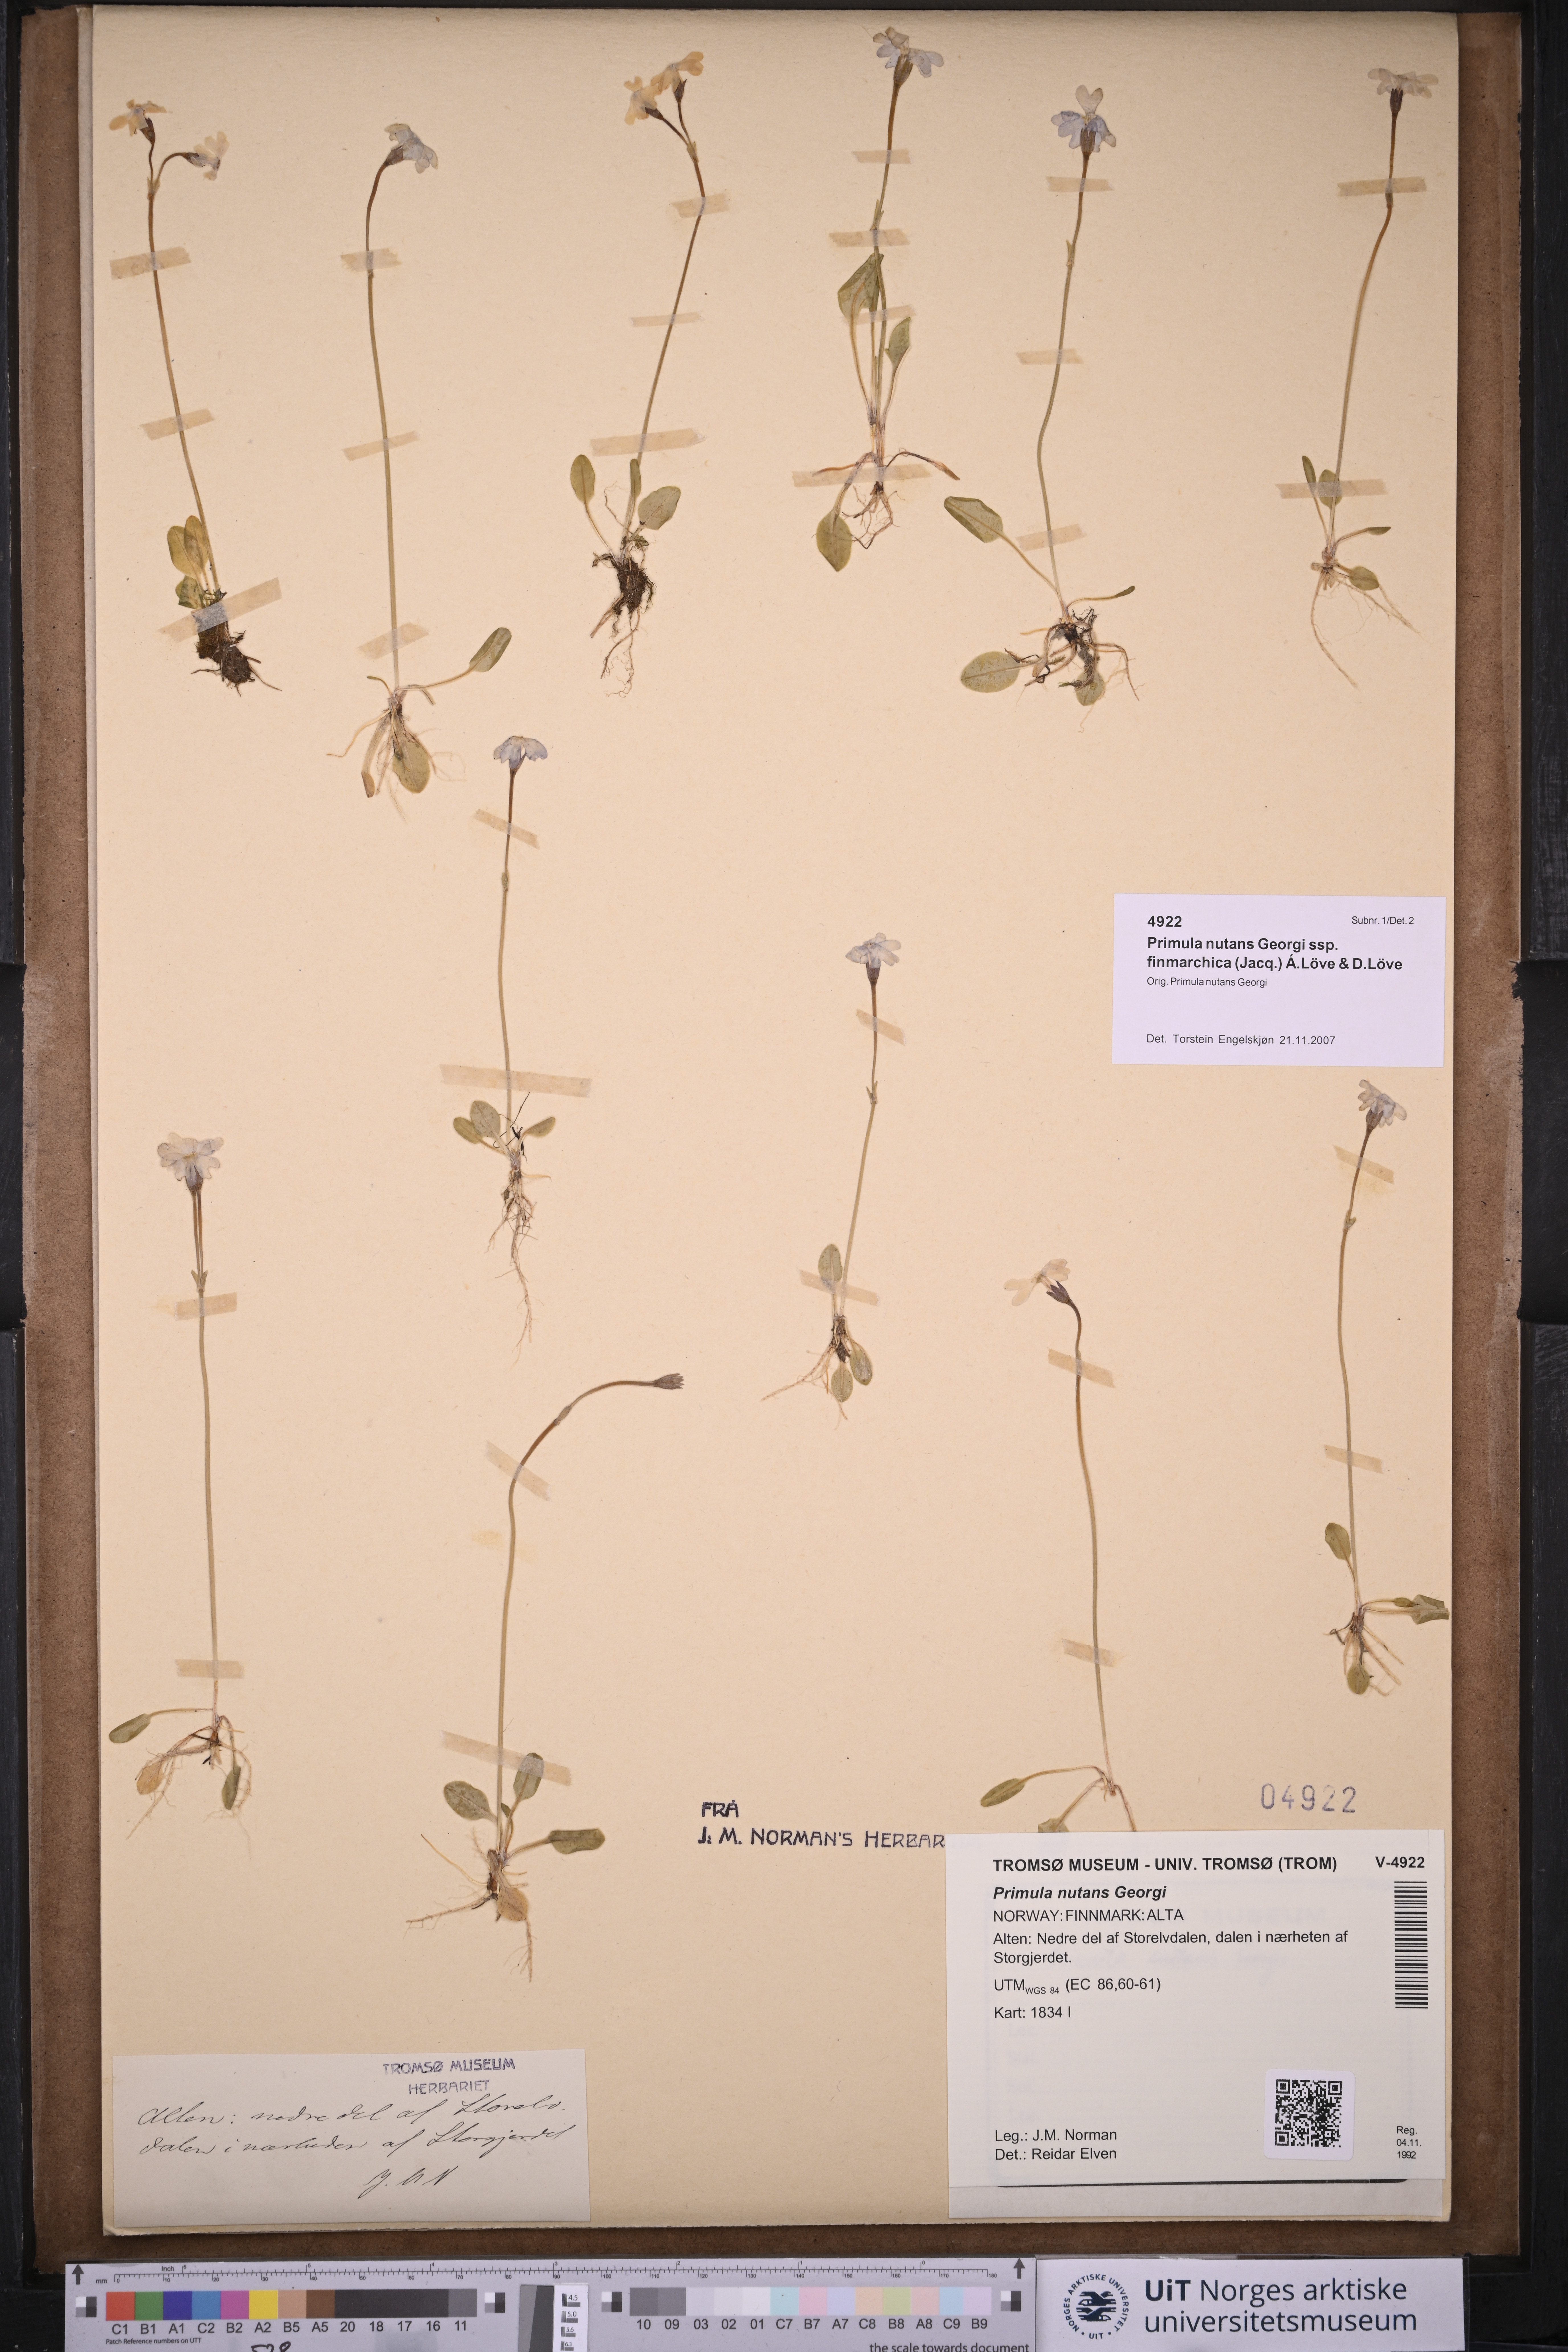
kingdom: Plantae
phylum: Tracheophyta
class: Magnoliopsida
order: Ericales
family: Primulaceae
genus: Primula
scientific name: Primula nutans
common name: Siberian primrose
